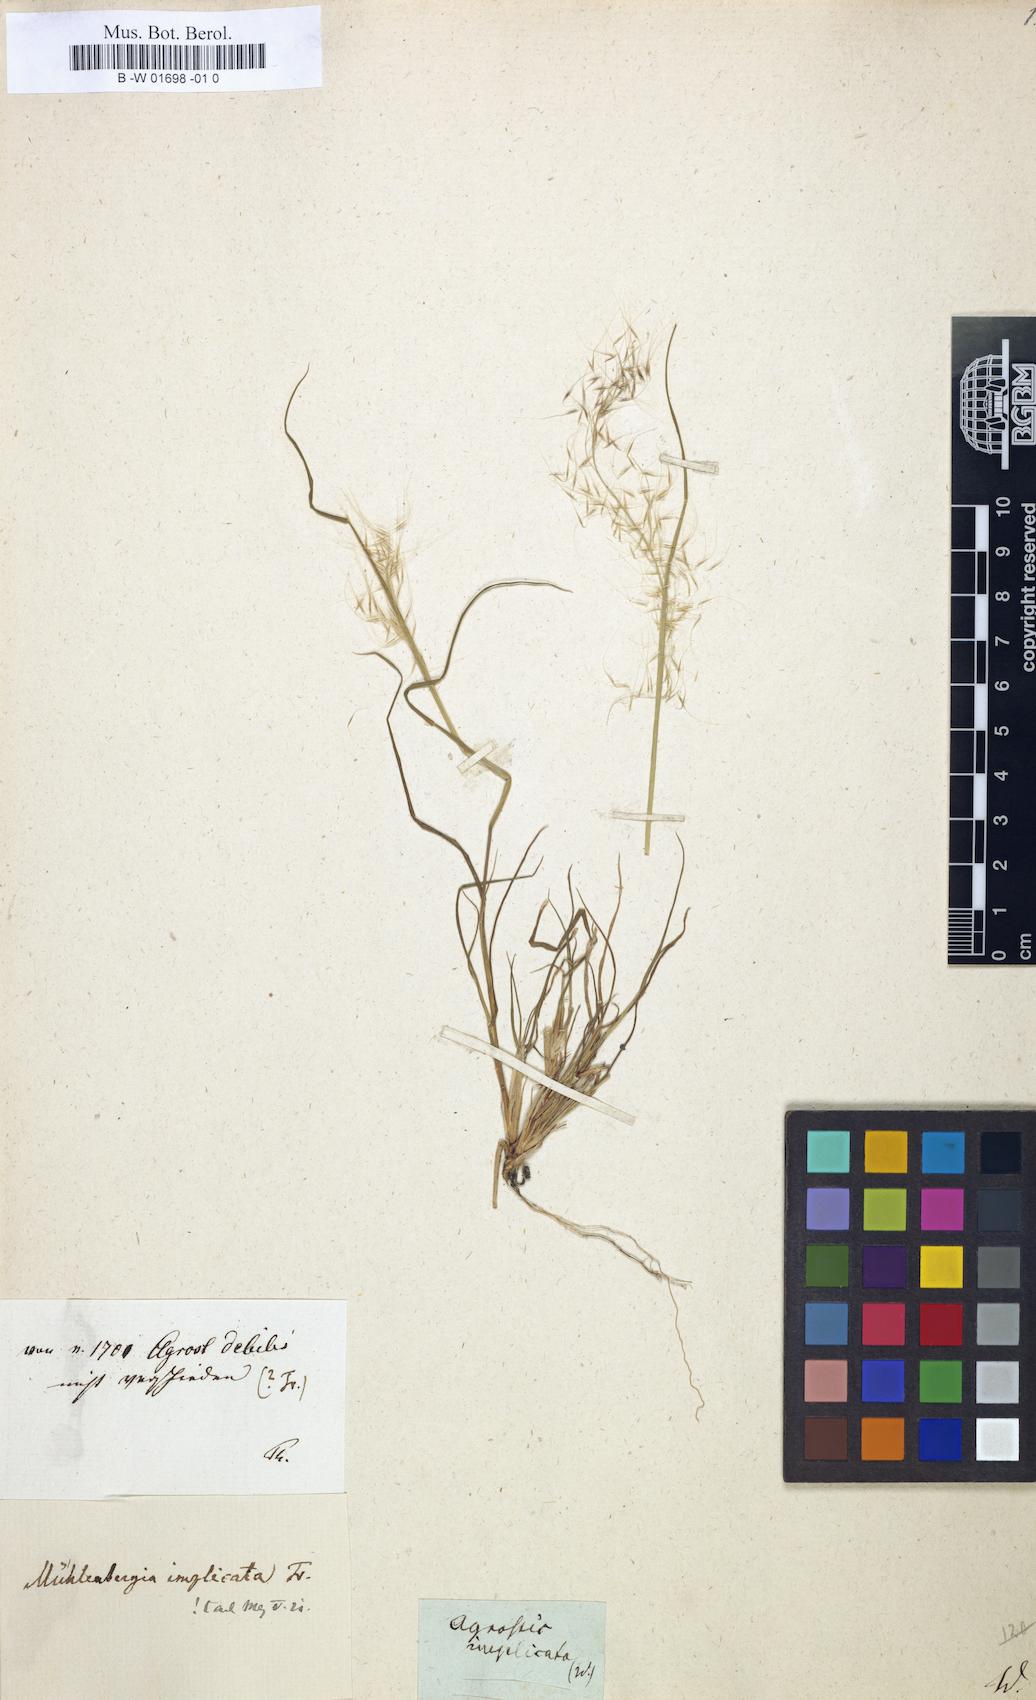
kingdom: Plantae
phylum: Tracheophyta
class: Liliopsida
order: Poales
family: Poaceae
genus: Muhlenbergia
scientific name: Muhlenbergia implicata
